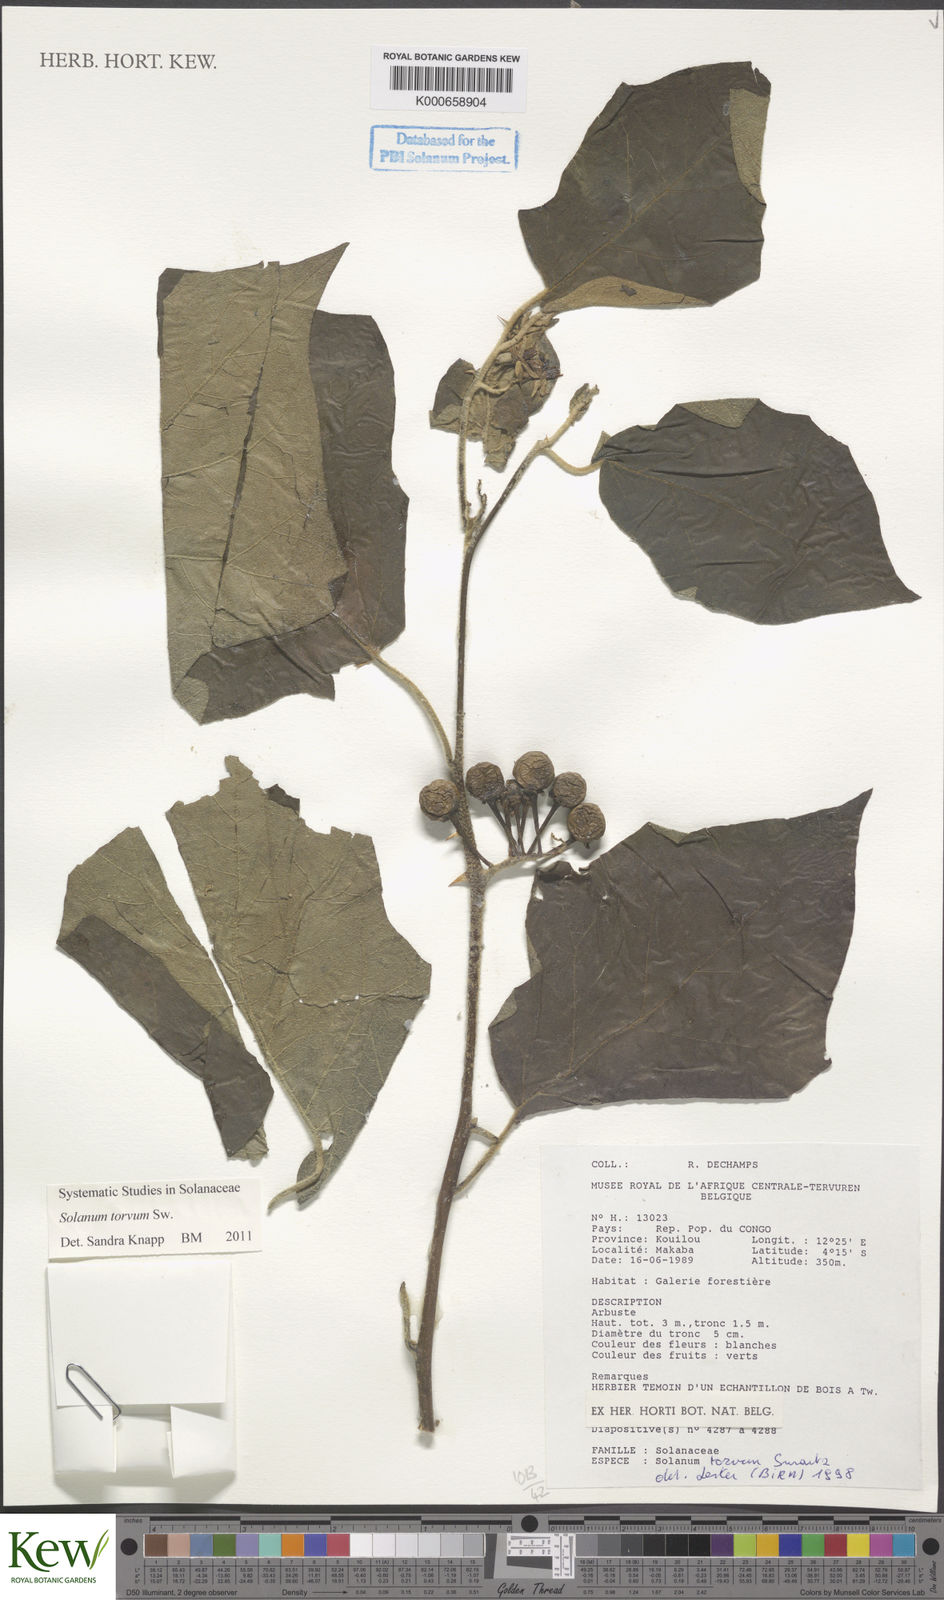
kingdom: Plantae
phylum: Tracheophyta
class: Magnoliopsida
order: Solanales
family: Solanaceae
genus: Solanum
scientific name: Solanum torvum
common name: Turkey berry
